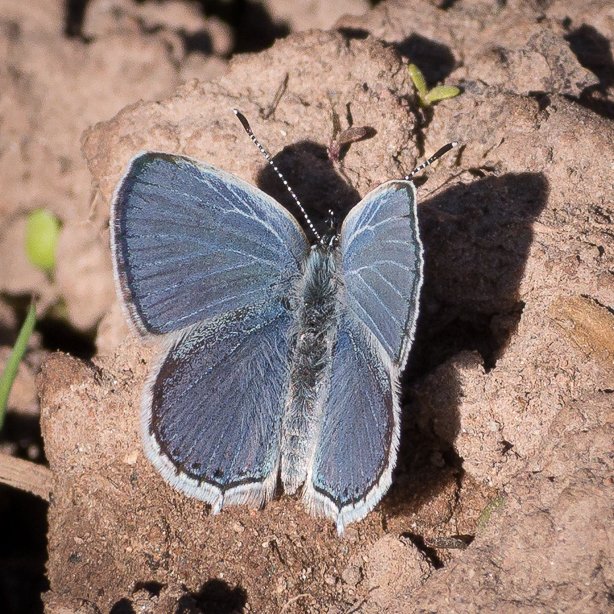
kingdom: Animalia
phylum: Arthropoda
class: Insecta
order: Lepidoptera
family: Lycaenidae
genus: Elkalyce
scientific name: Elkalyce amyntula
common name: Western Tailed-Blue
